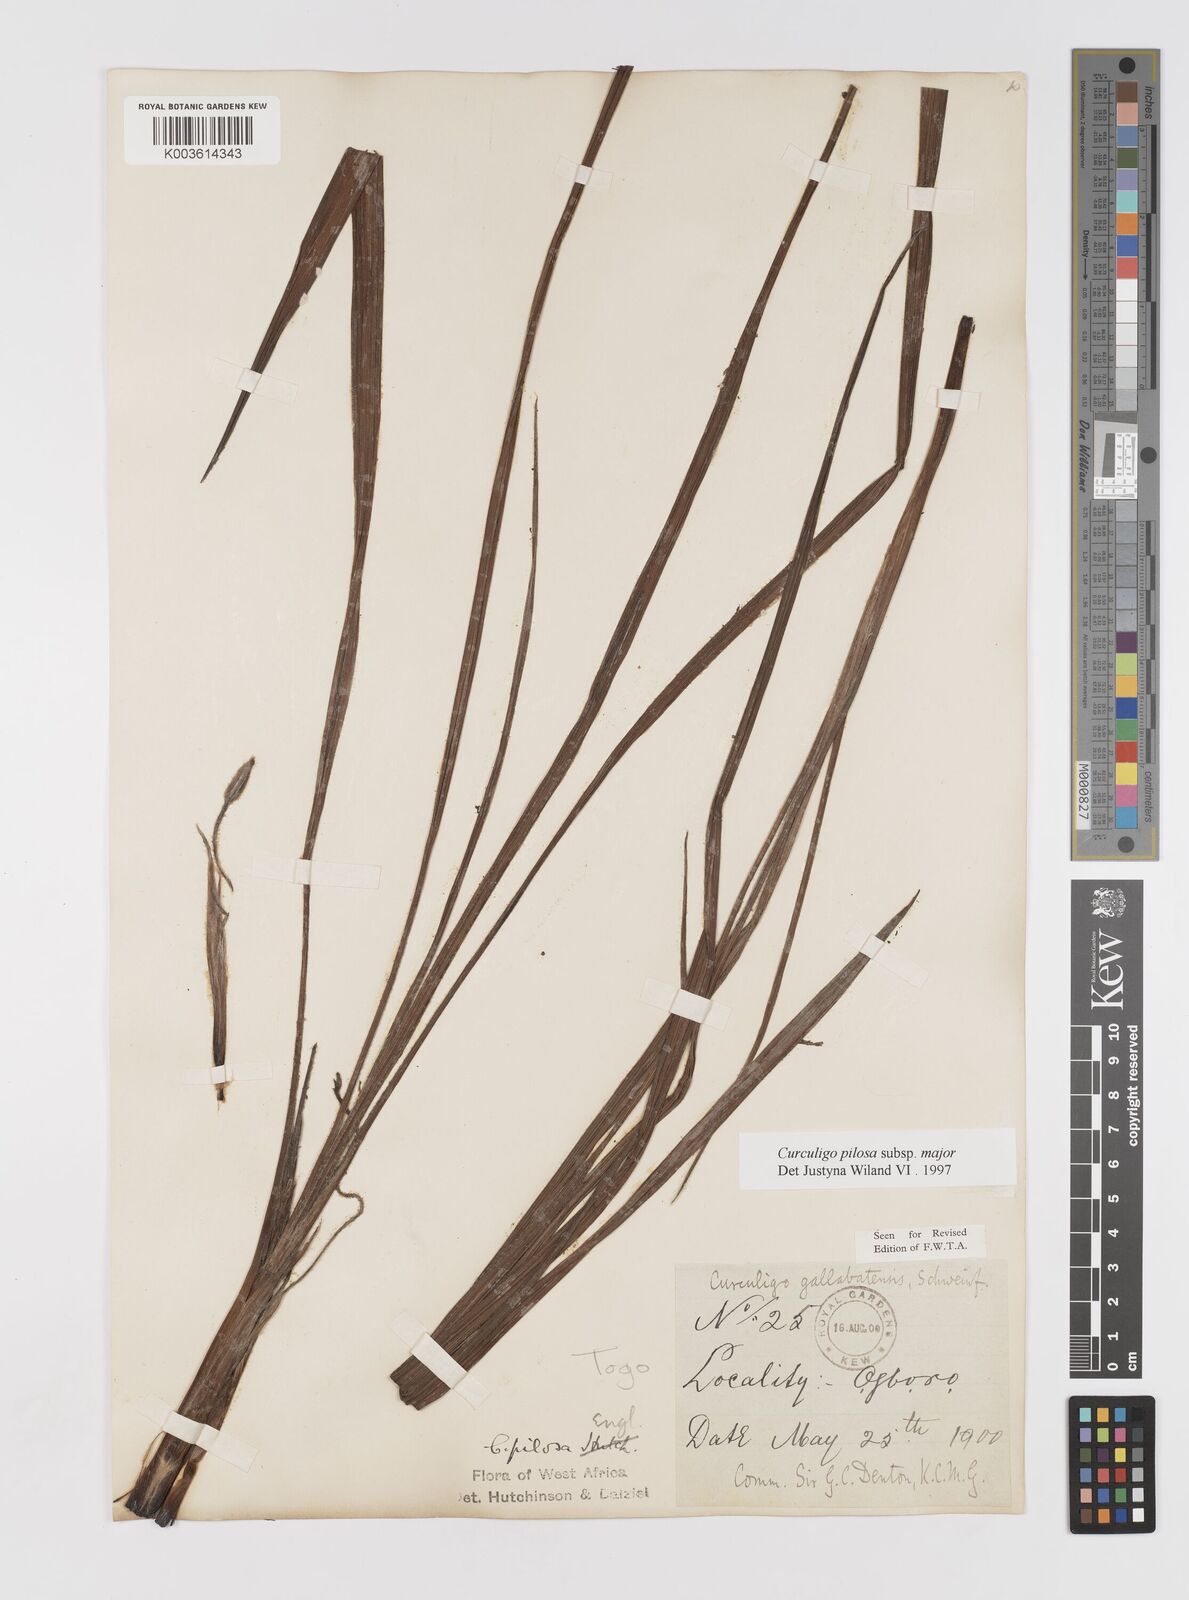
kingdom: Plantae
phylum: Tracheophyta
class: Liliopsida
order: Asparagales
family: Hypoxidaceae
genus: Curculigo
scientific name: Curculigo pilosa
